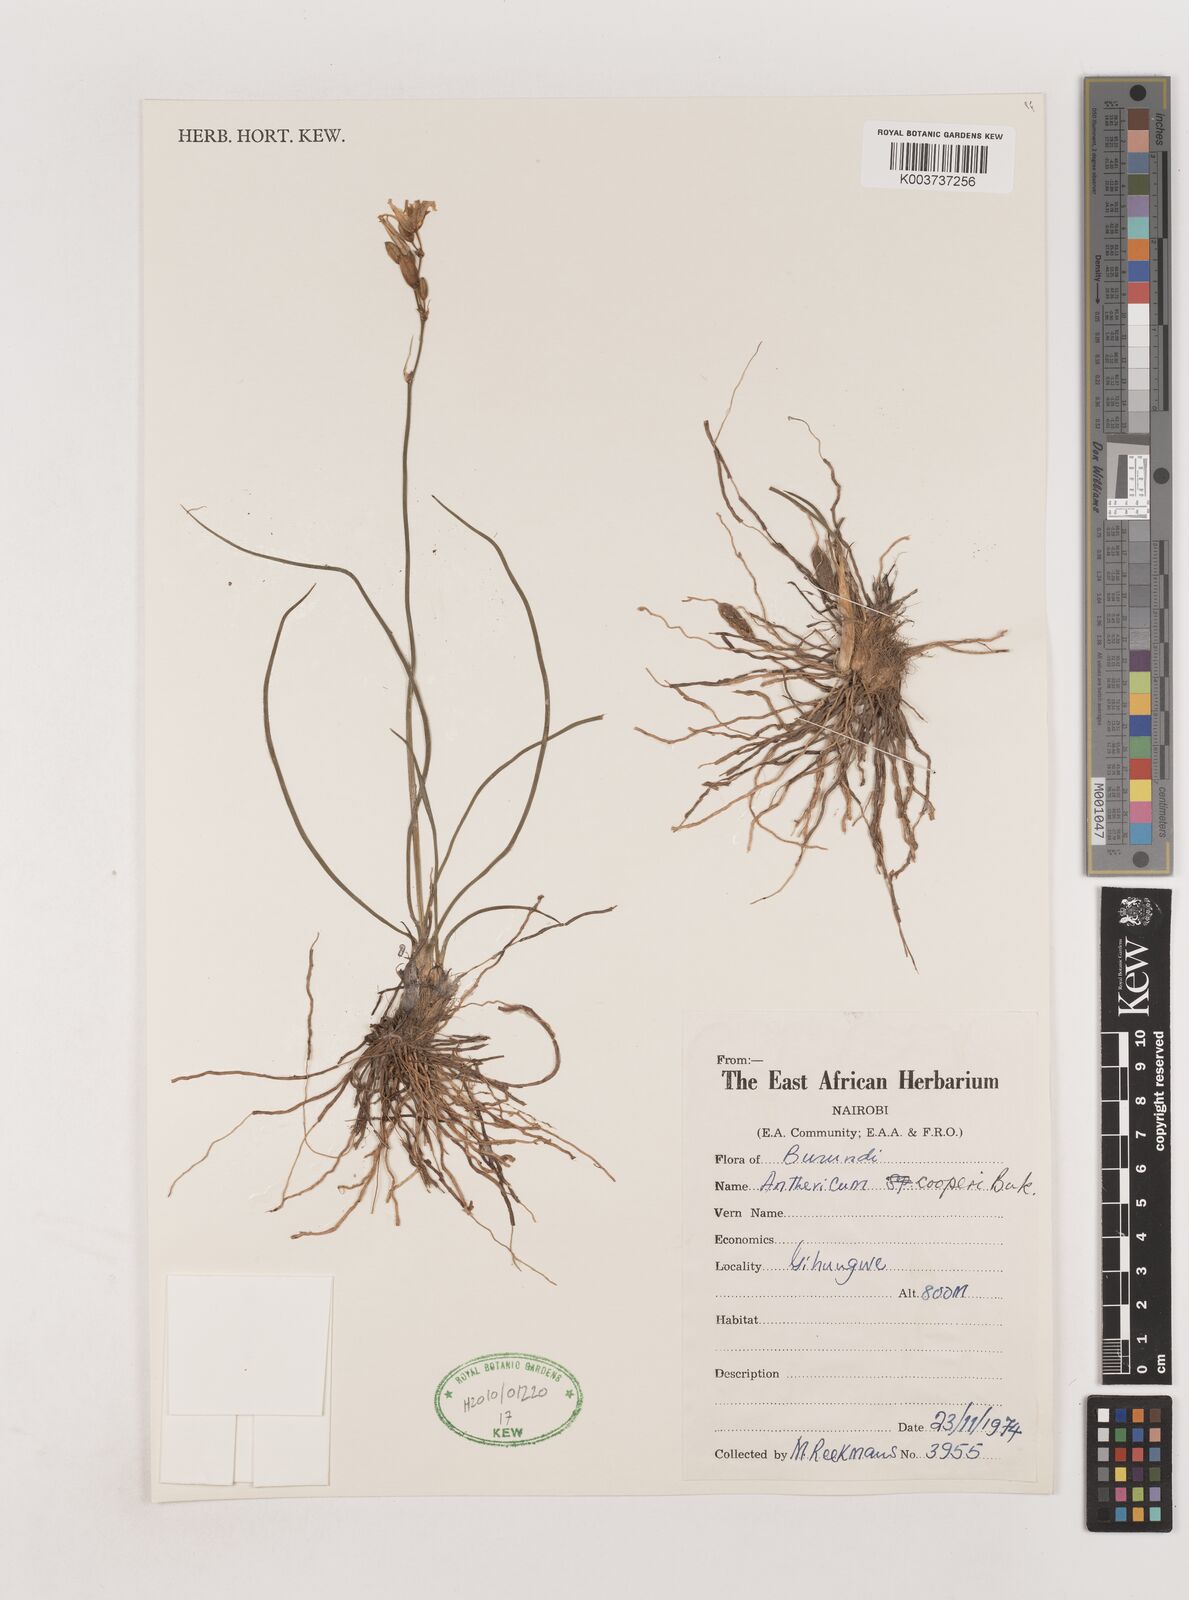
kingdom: Plantae
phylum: Tracheophyta
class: Liliopsida
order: Asparagales
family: Asparagaceae
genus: Chlorophytum
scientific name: Chlorophytum cooperi
